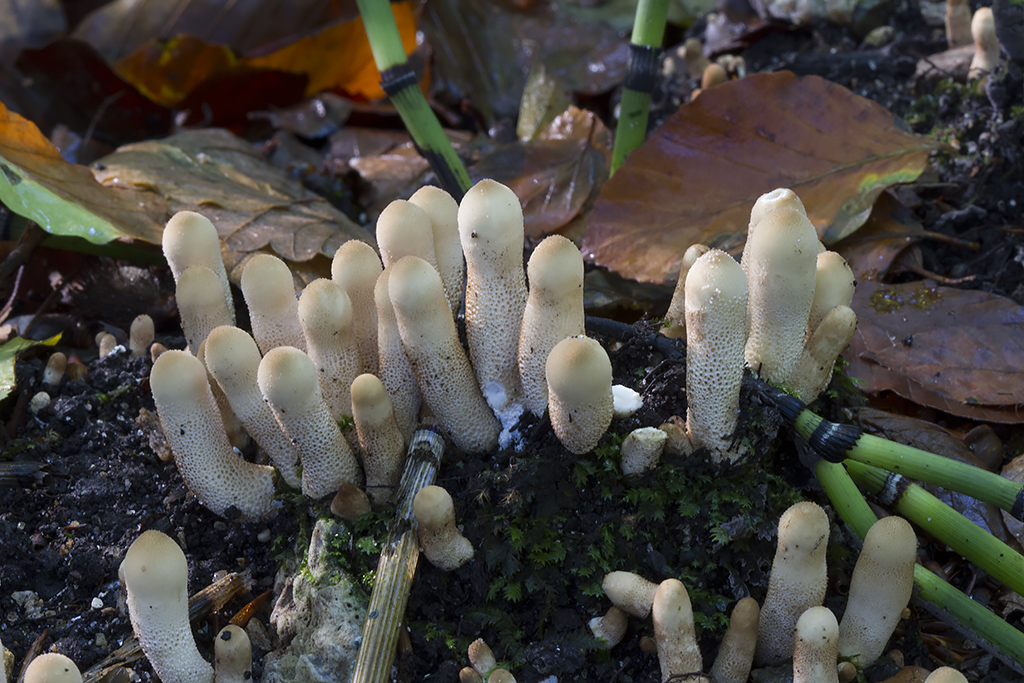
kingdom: Fungi
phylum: Basidiomycota
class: Agaricomycetes
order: Agaricales
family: Lycoperdaceae
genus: Apioperdon
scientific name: Apioperdon pyriforme
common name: pære-støvbold
